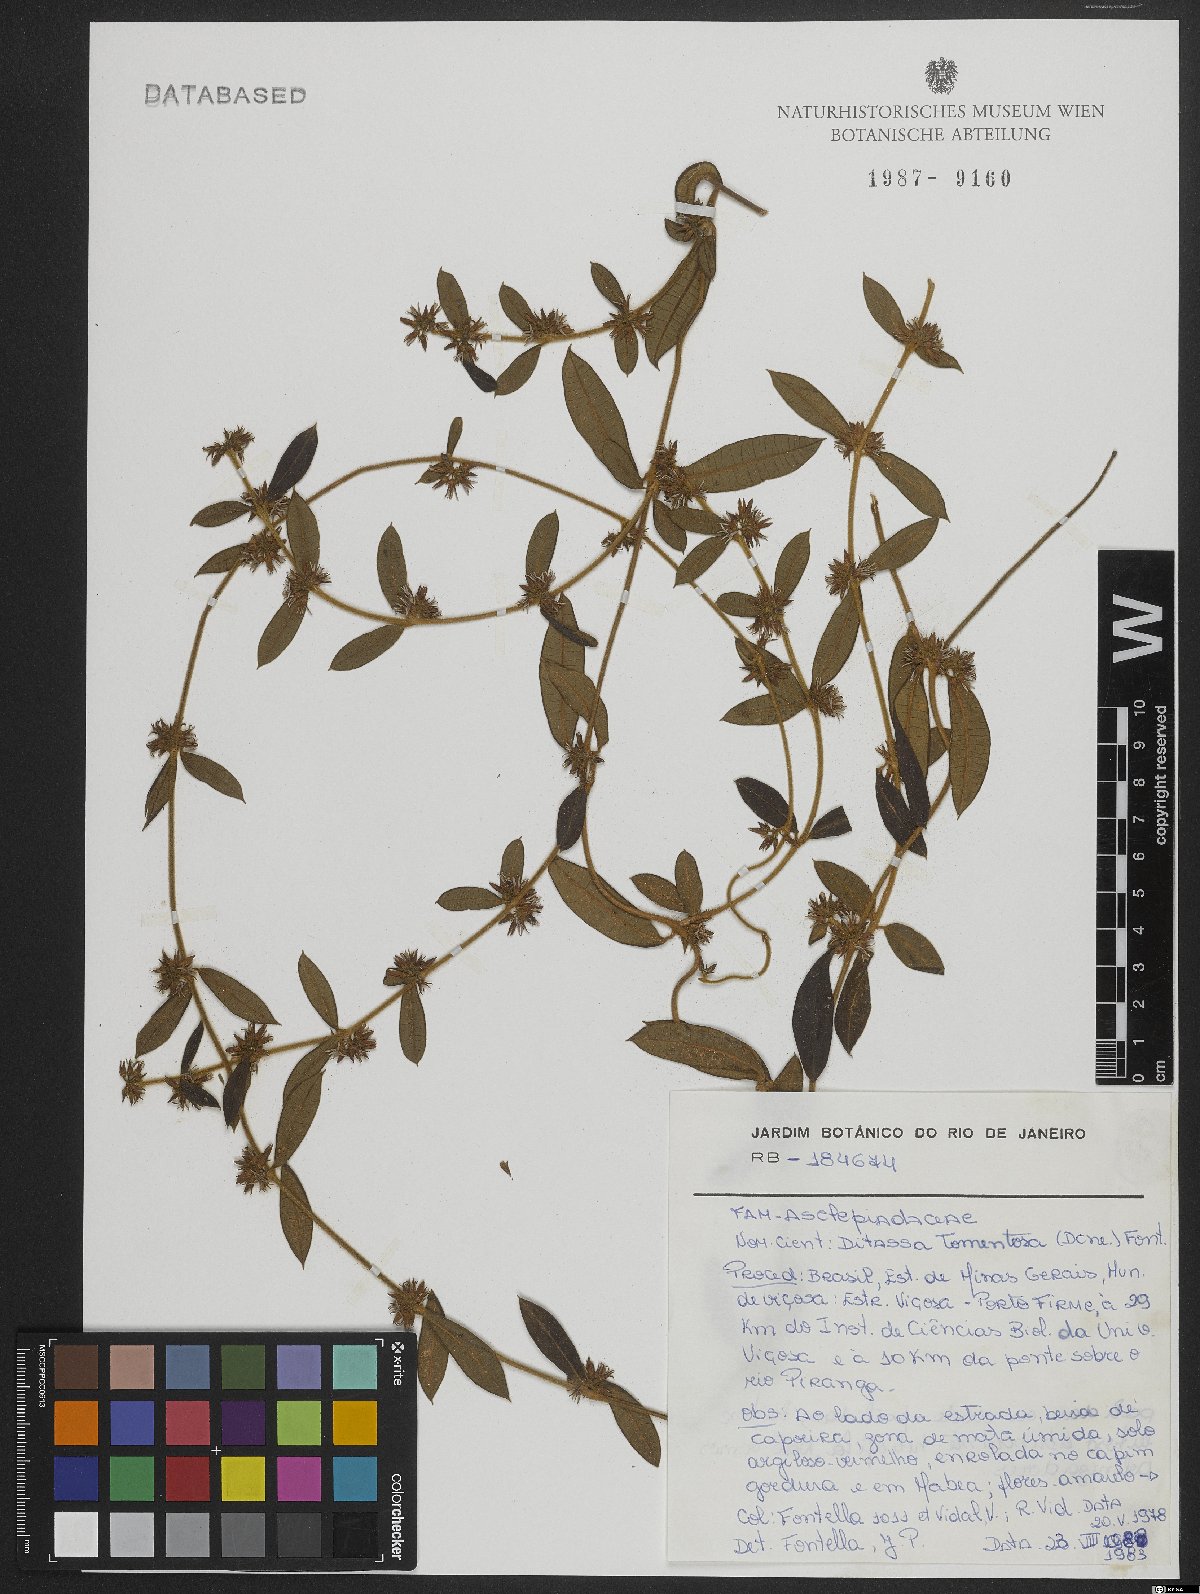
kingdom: Plantae
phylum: Tracheophyta
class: Magnoliopsida
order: Gentianales
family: Apocynaceae
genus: Ditassa
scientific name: Ditassa tomentosa
